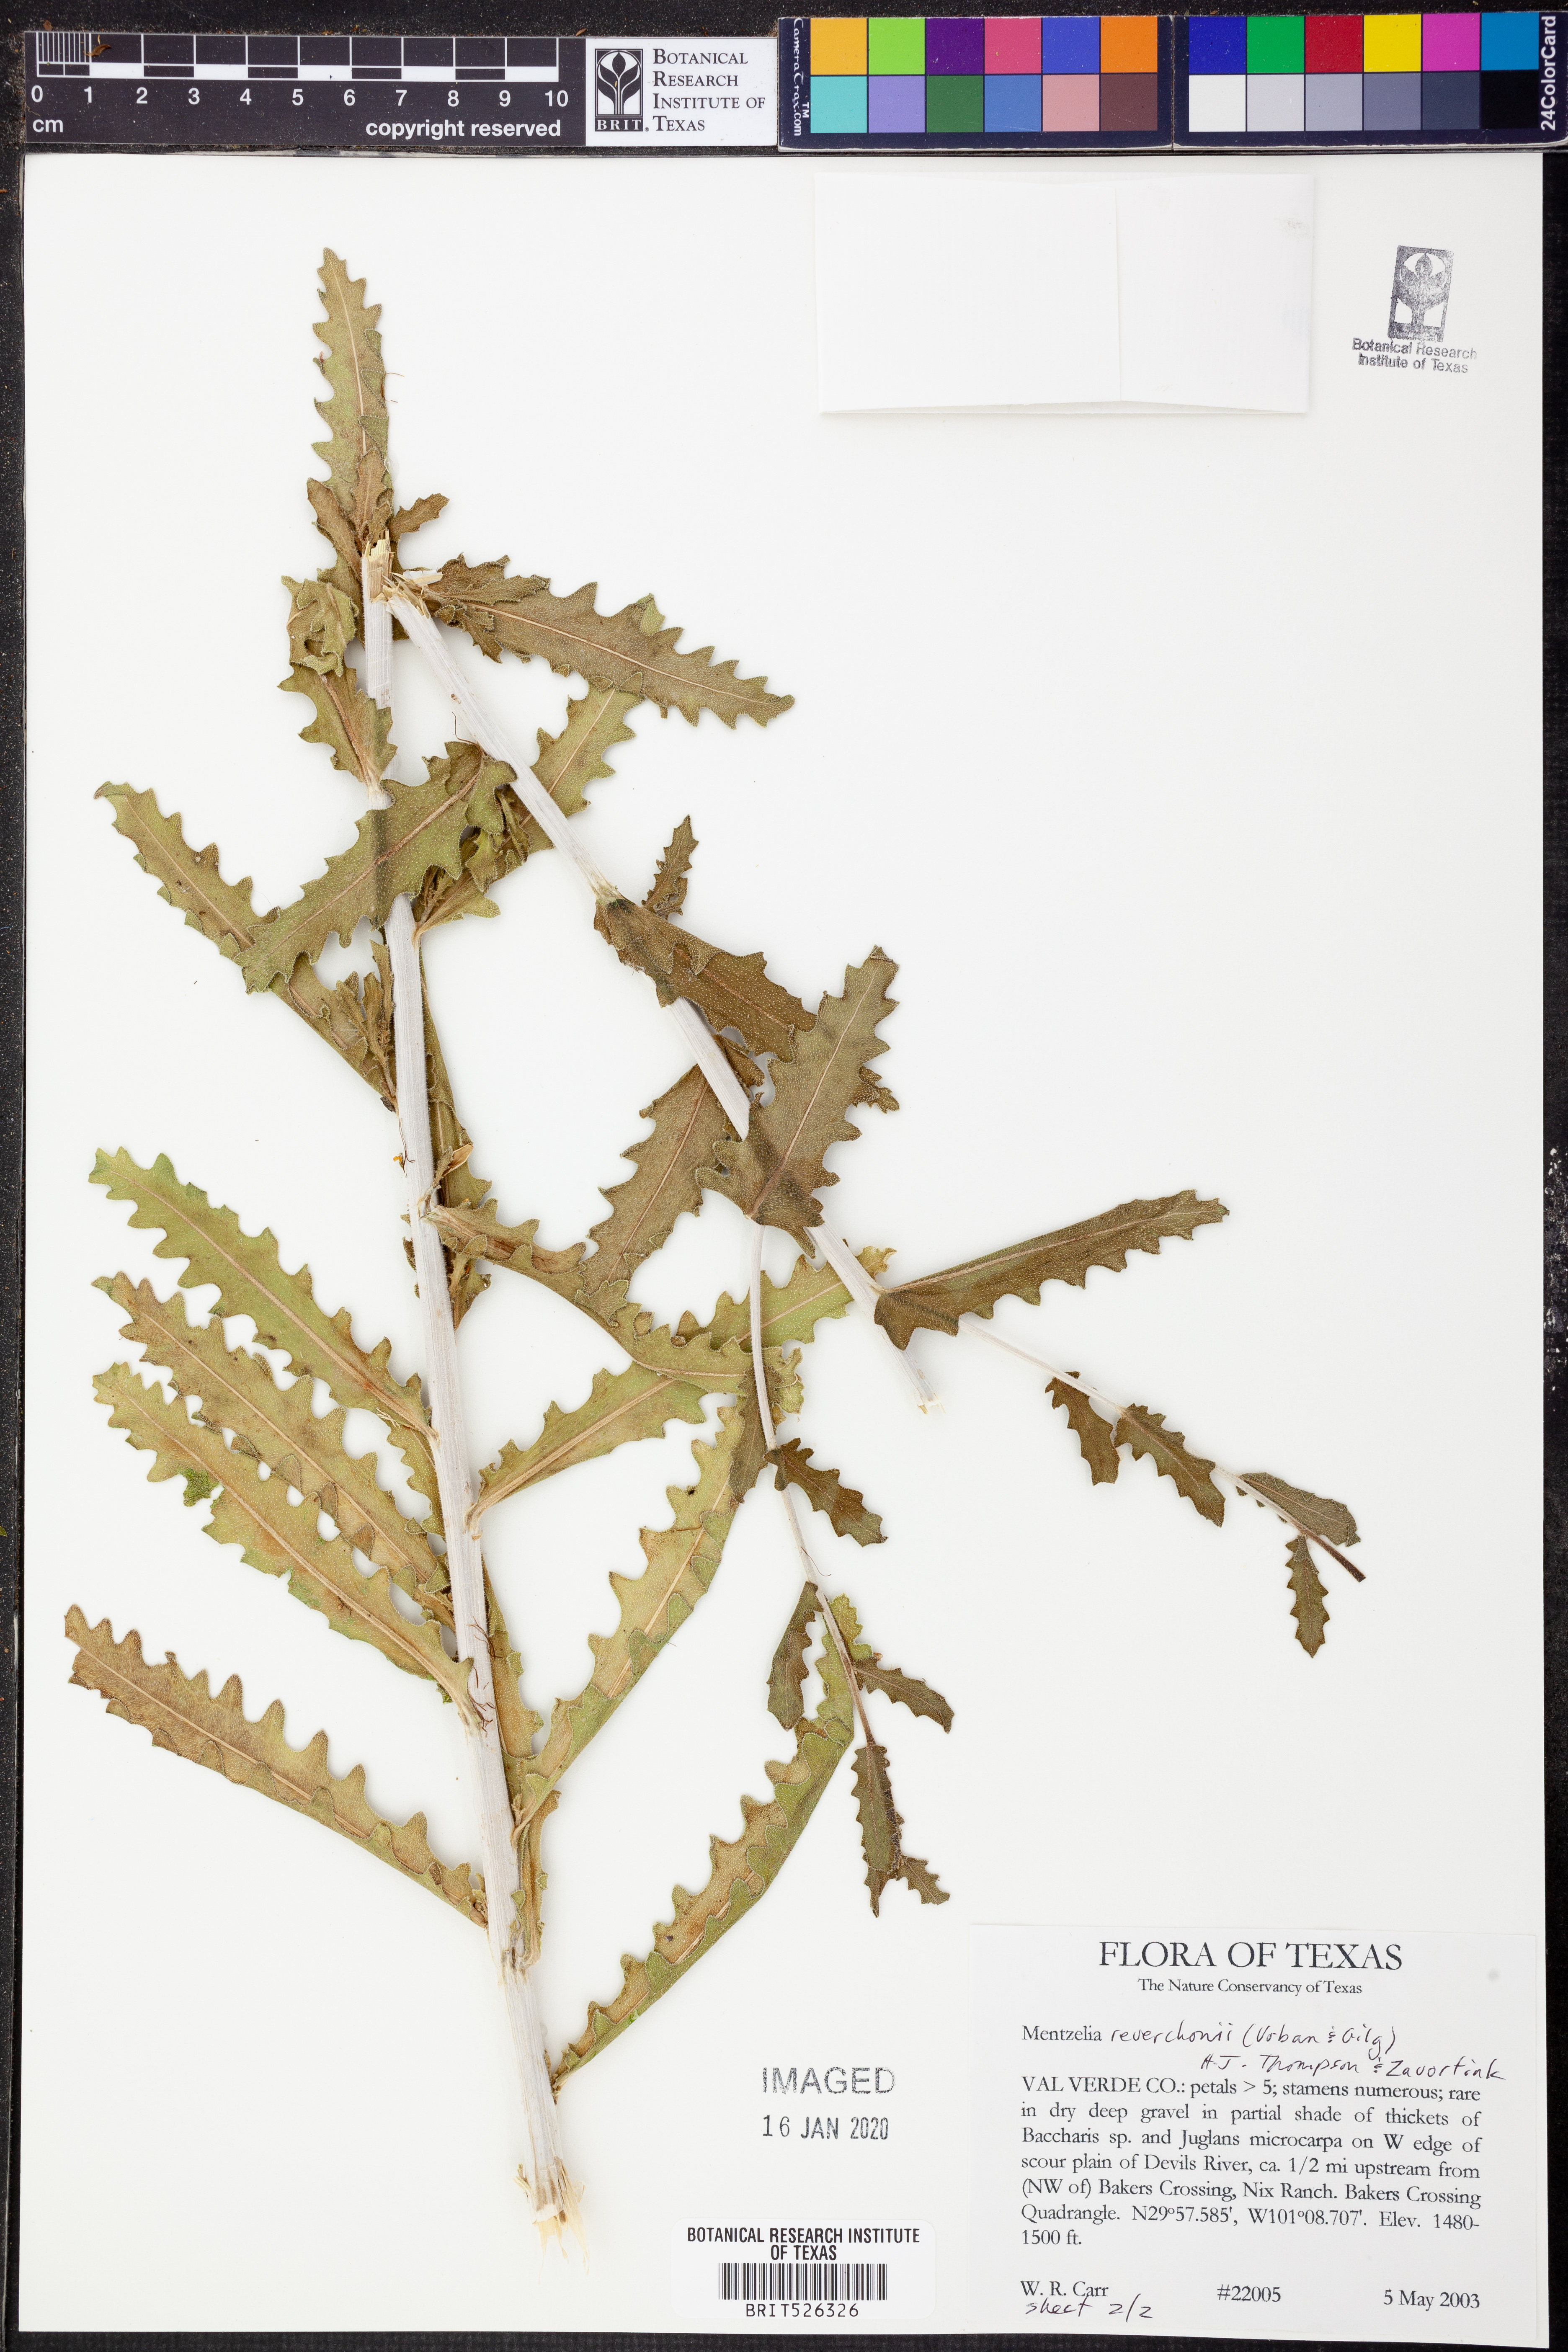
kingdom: Plantae
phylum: Tracheophyta
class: Magnoliopsida
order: Cornales
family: Loasaceae
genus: Mentzelia
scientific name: Mentzelia reverchonii
